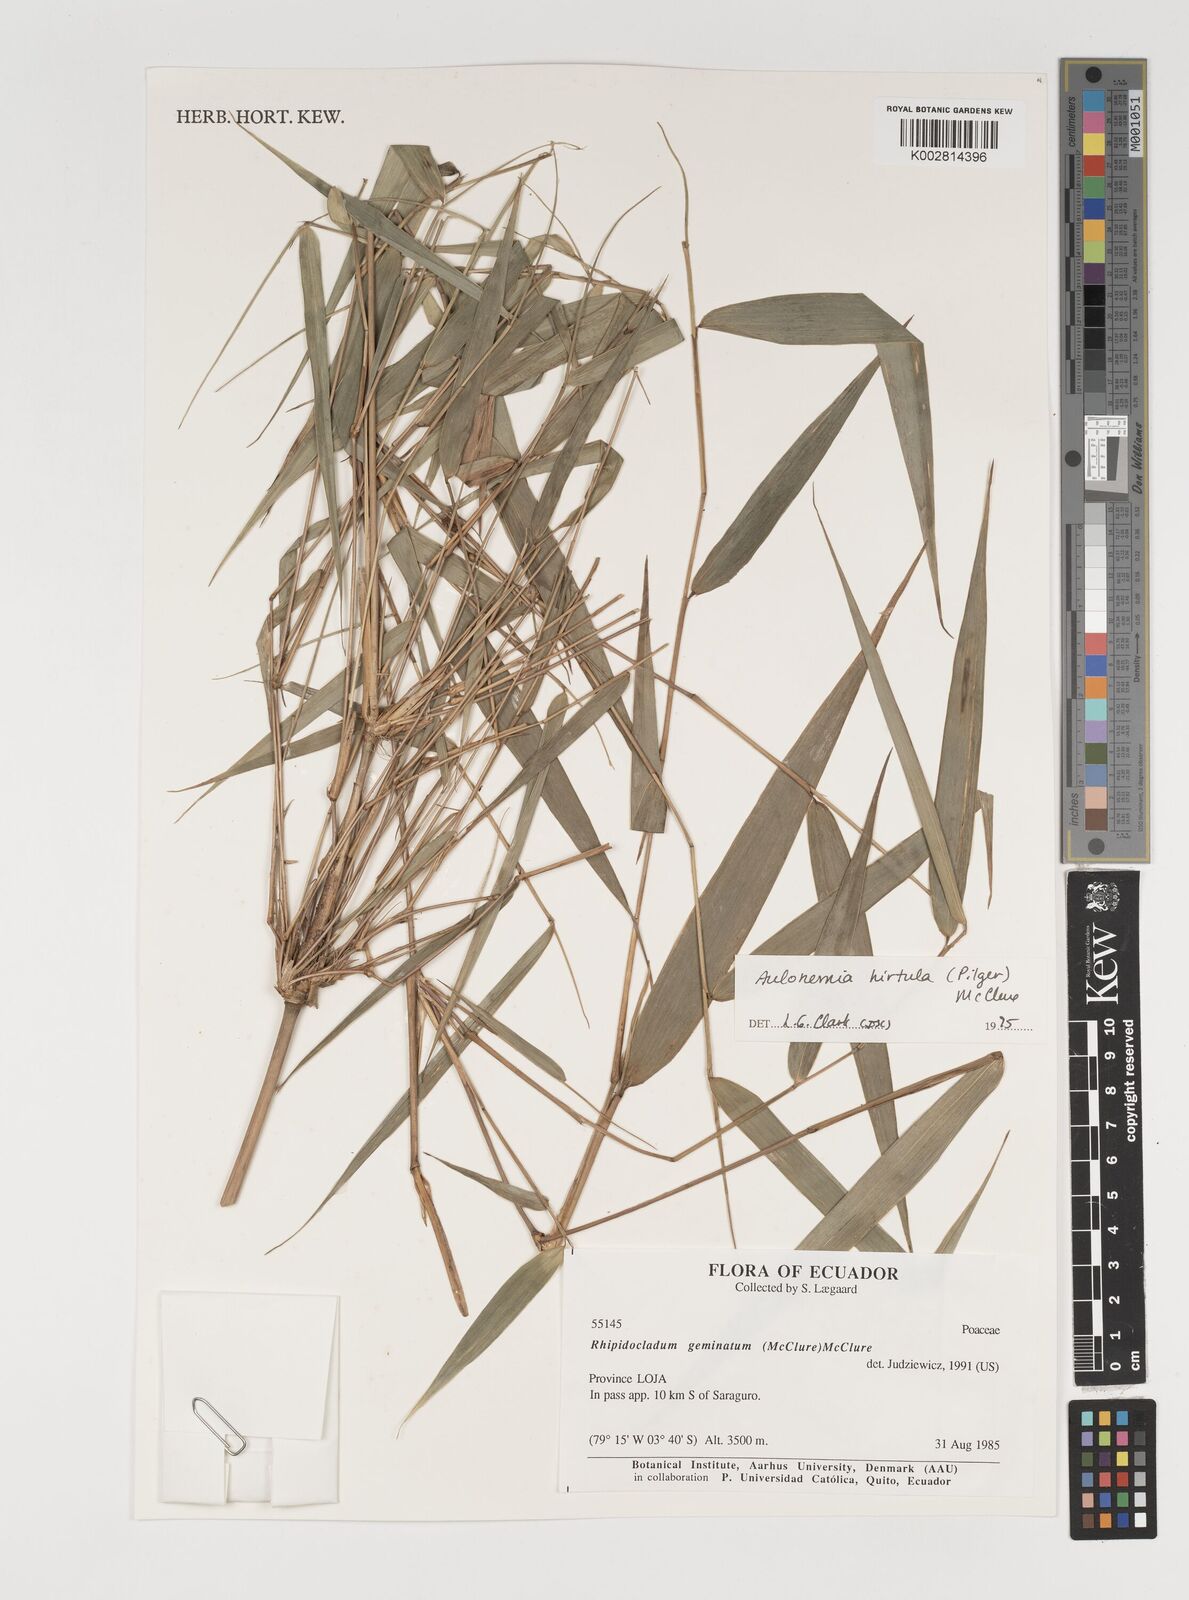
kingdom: Plantae
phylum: Tracheophyta
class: Liliopsida
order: Poales
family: Poaceae
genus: Aulonemia
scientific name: Aulonemia hirtula
